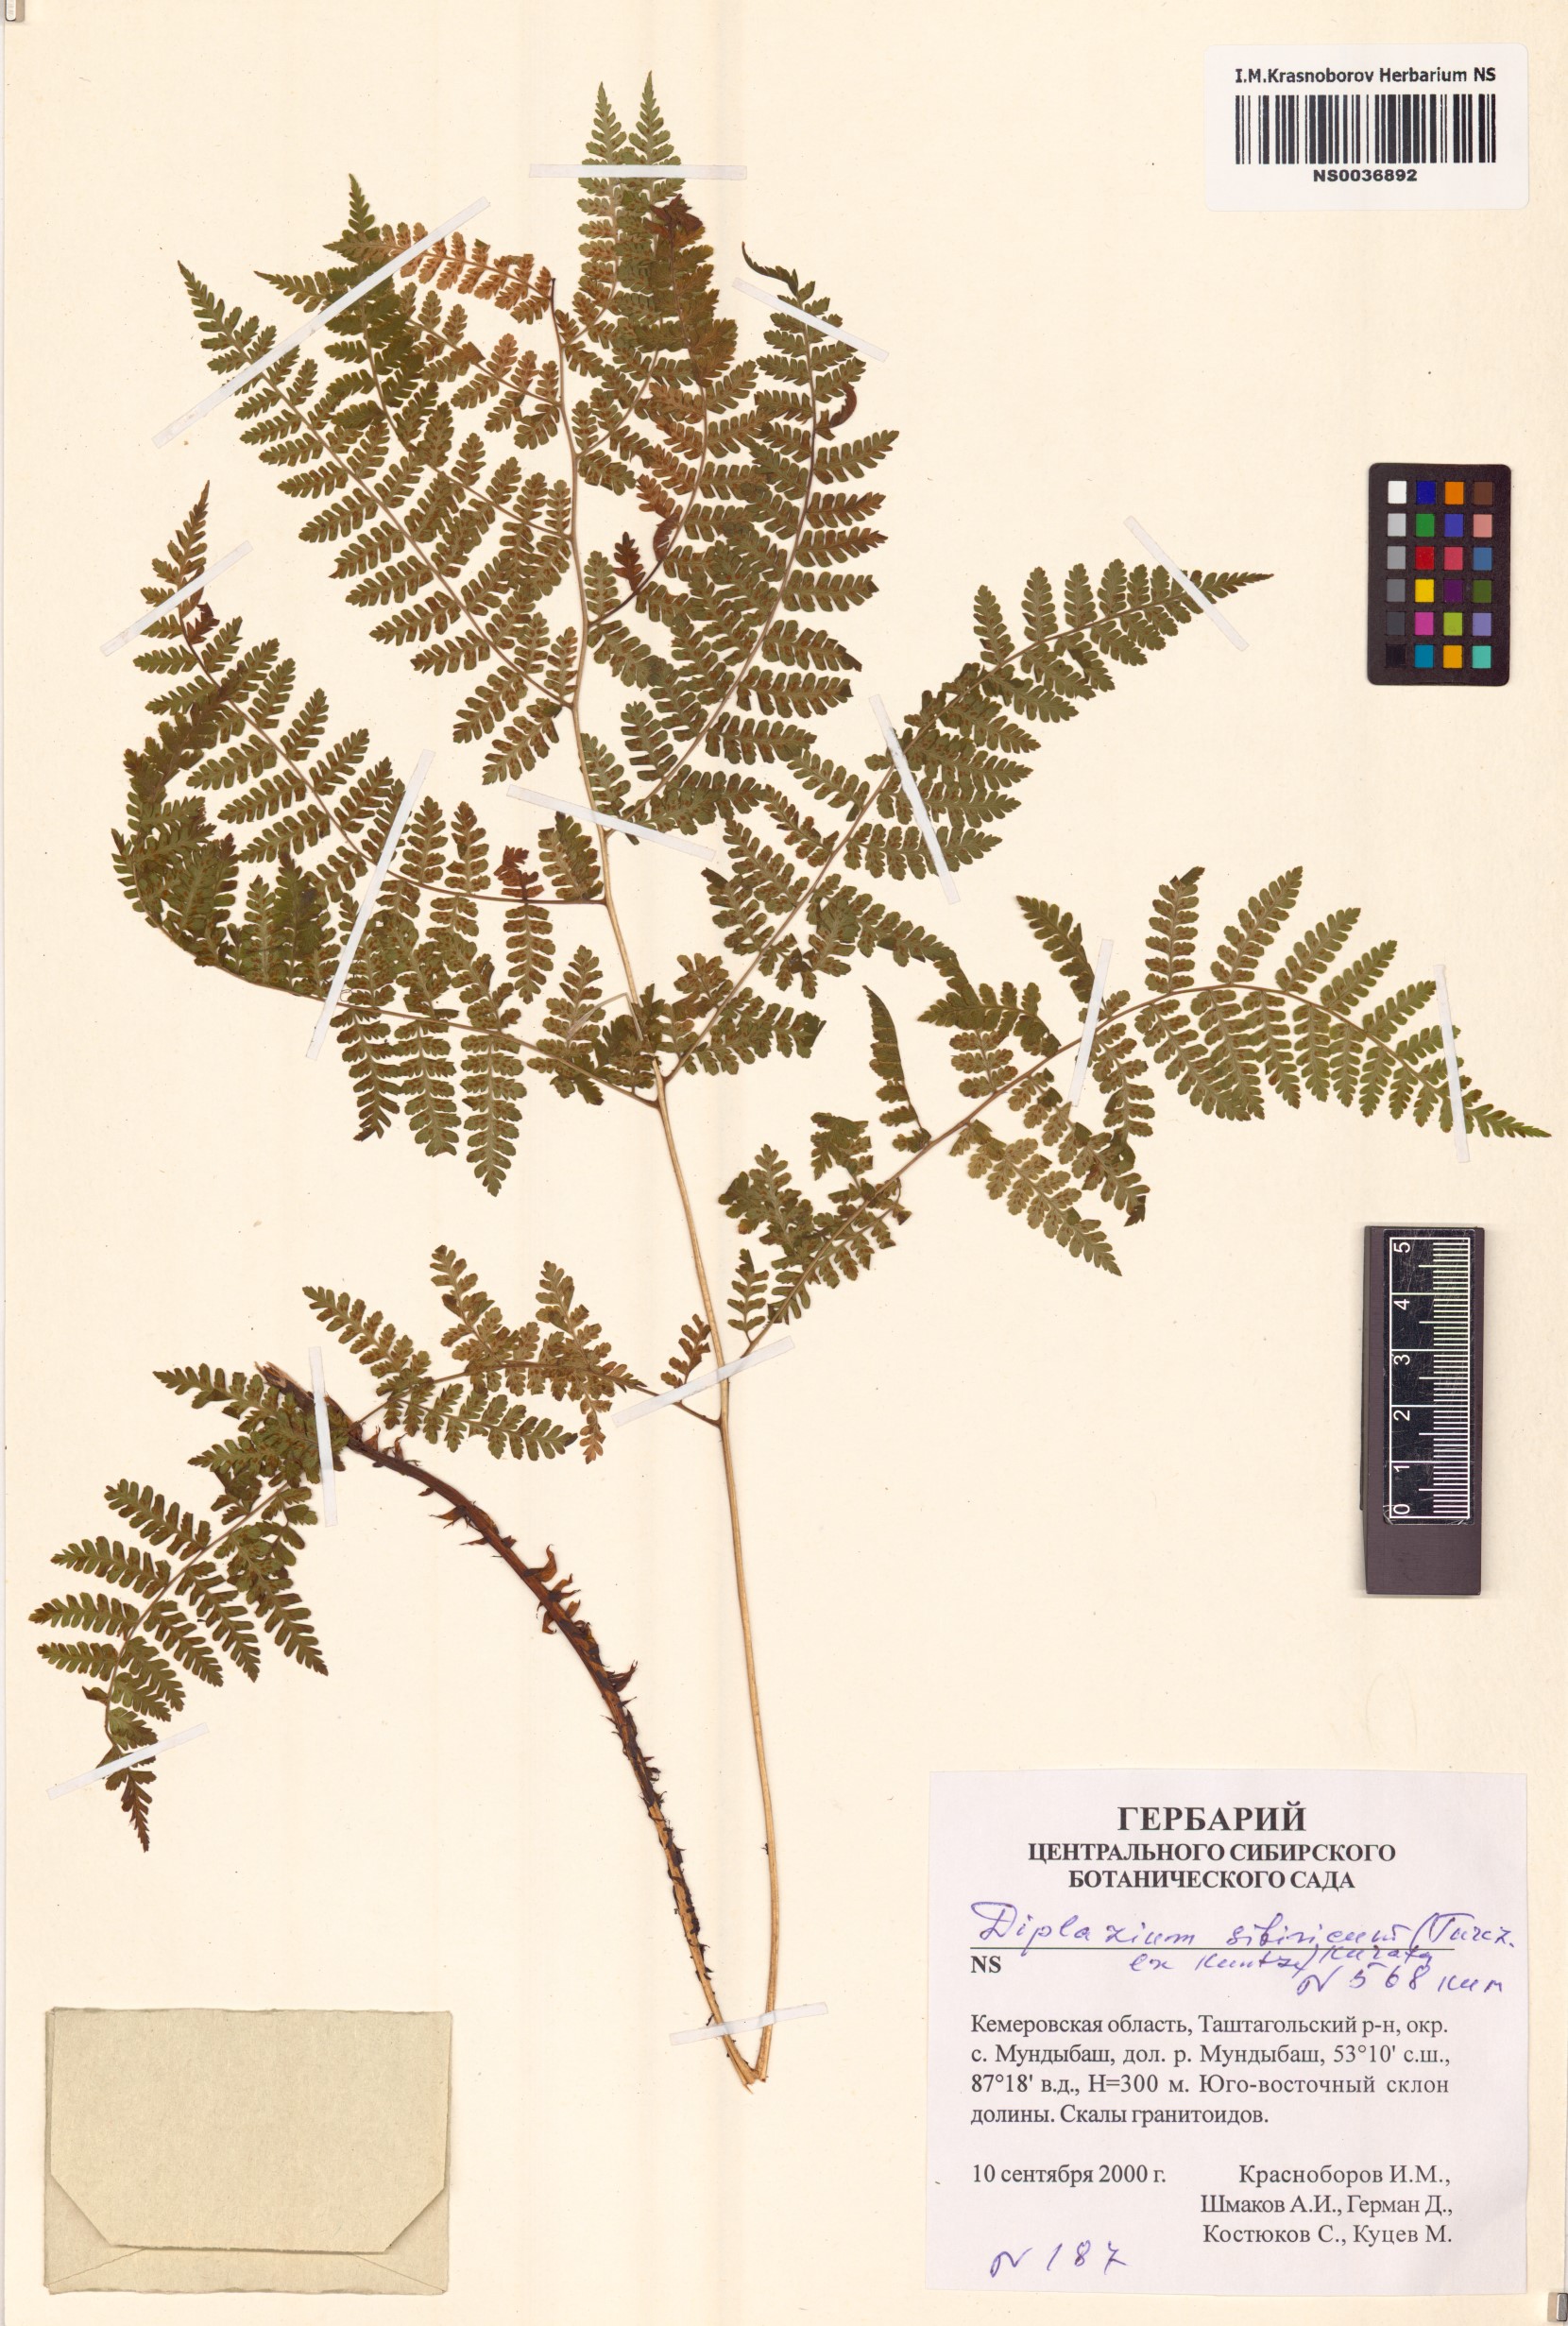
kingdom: Plantae
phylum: Tracheophyta
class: Polypodiopsida
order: Polypodiales
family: Athyriaceae
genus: Diplazium
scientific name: Diplazium sibiricum
